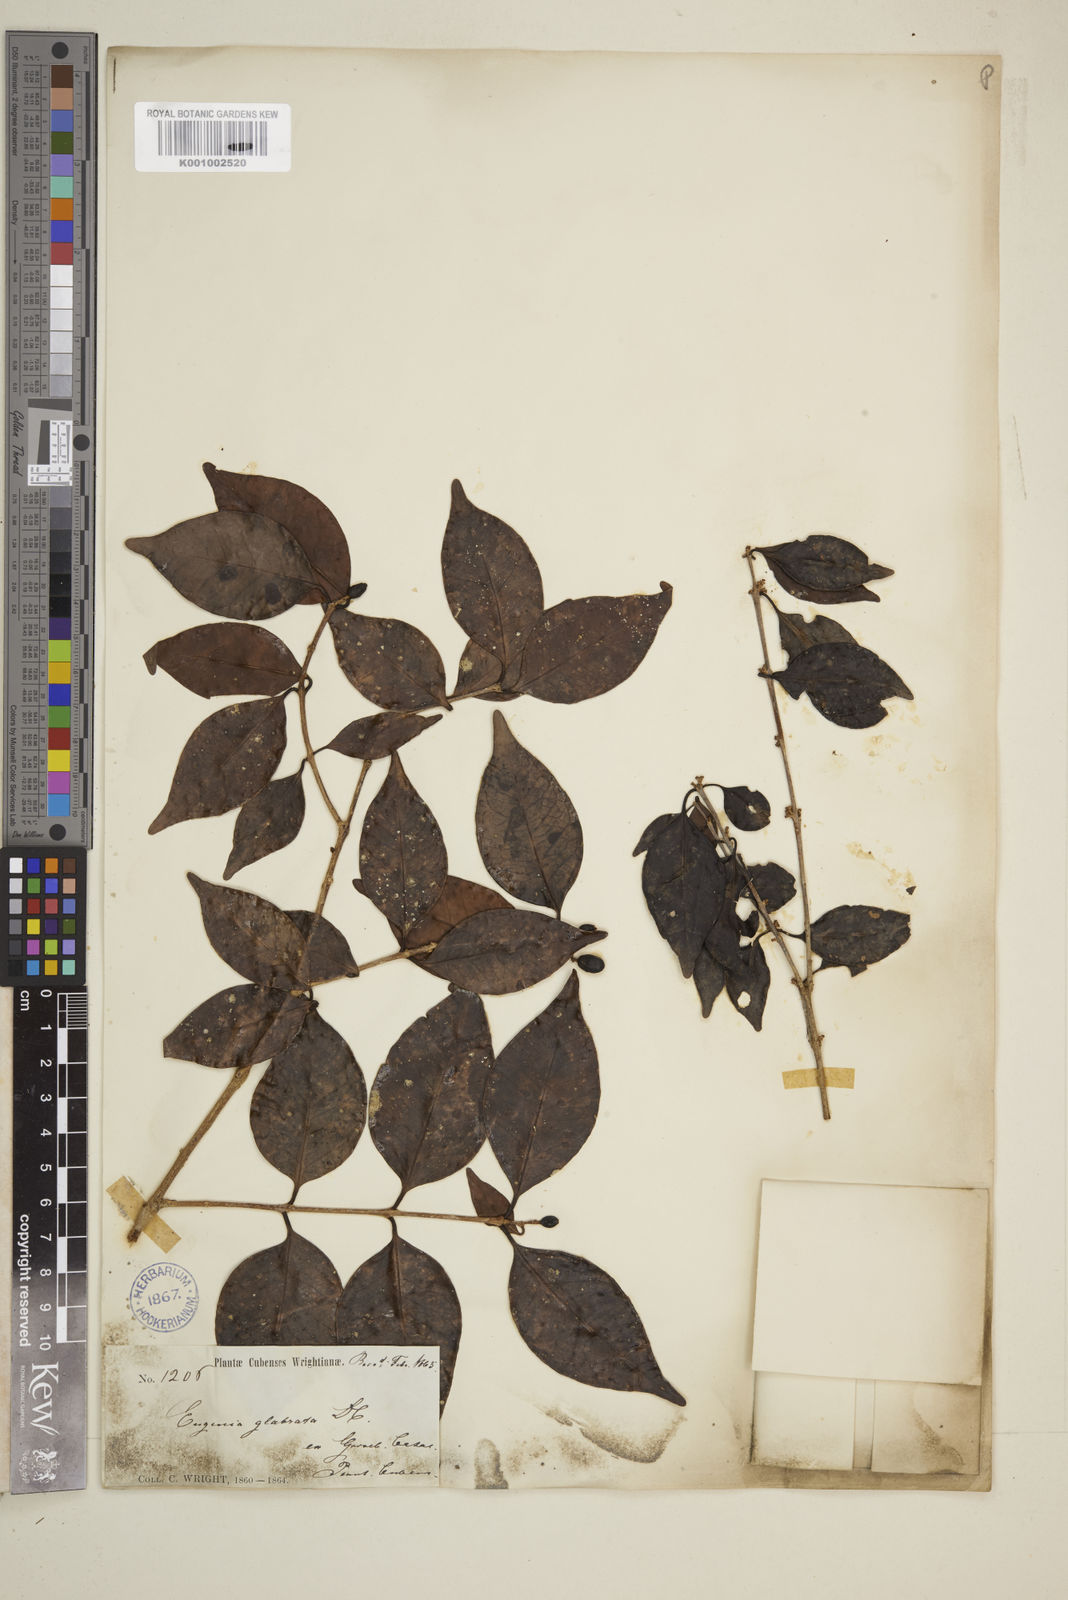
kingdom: Plantae
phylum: Tracheophyta
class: Magnoliopsida
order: Myrtales
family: Myrtaceae
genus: Eugenia
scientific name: Eugenia glabrata
